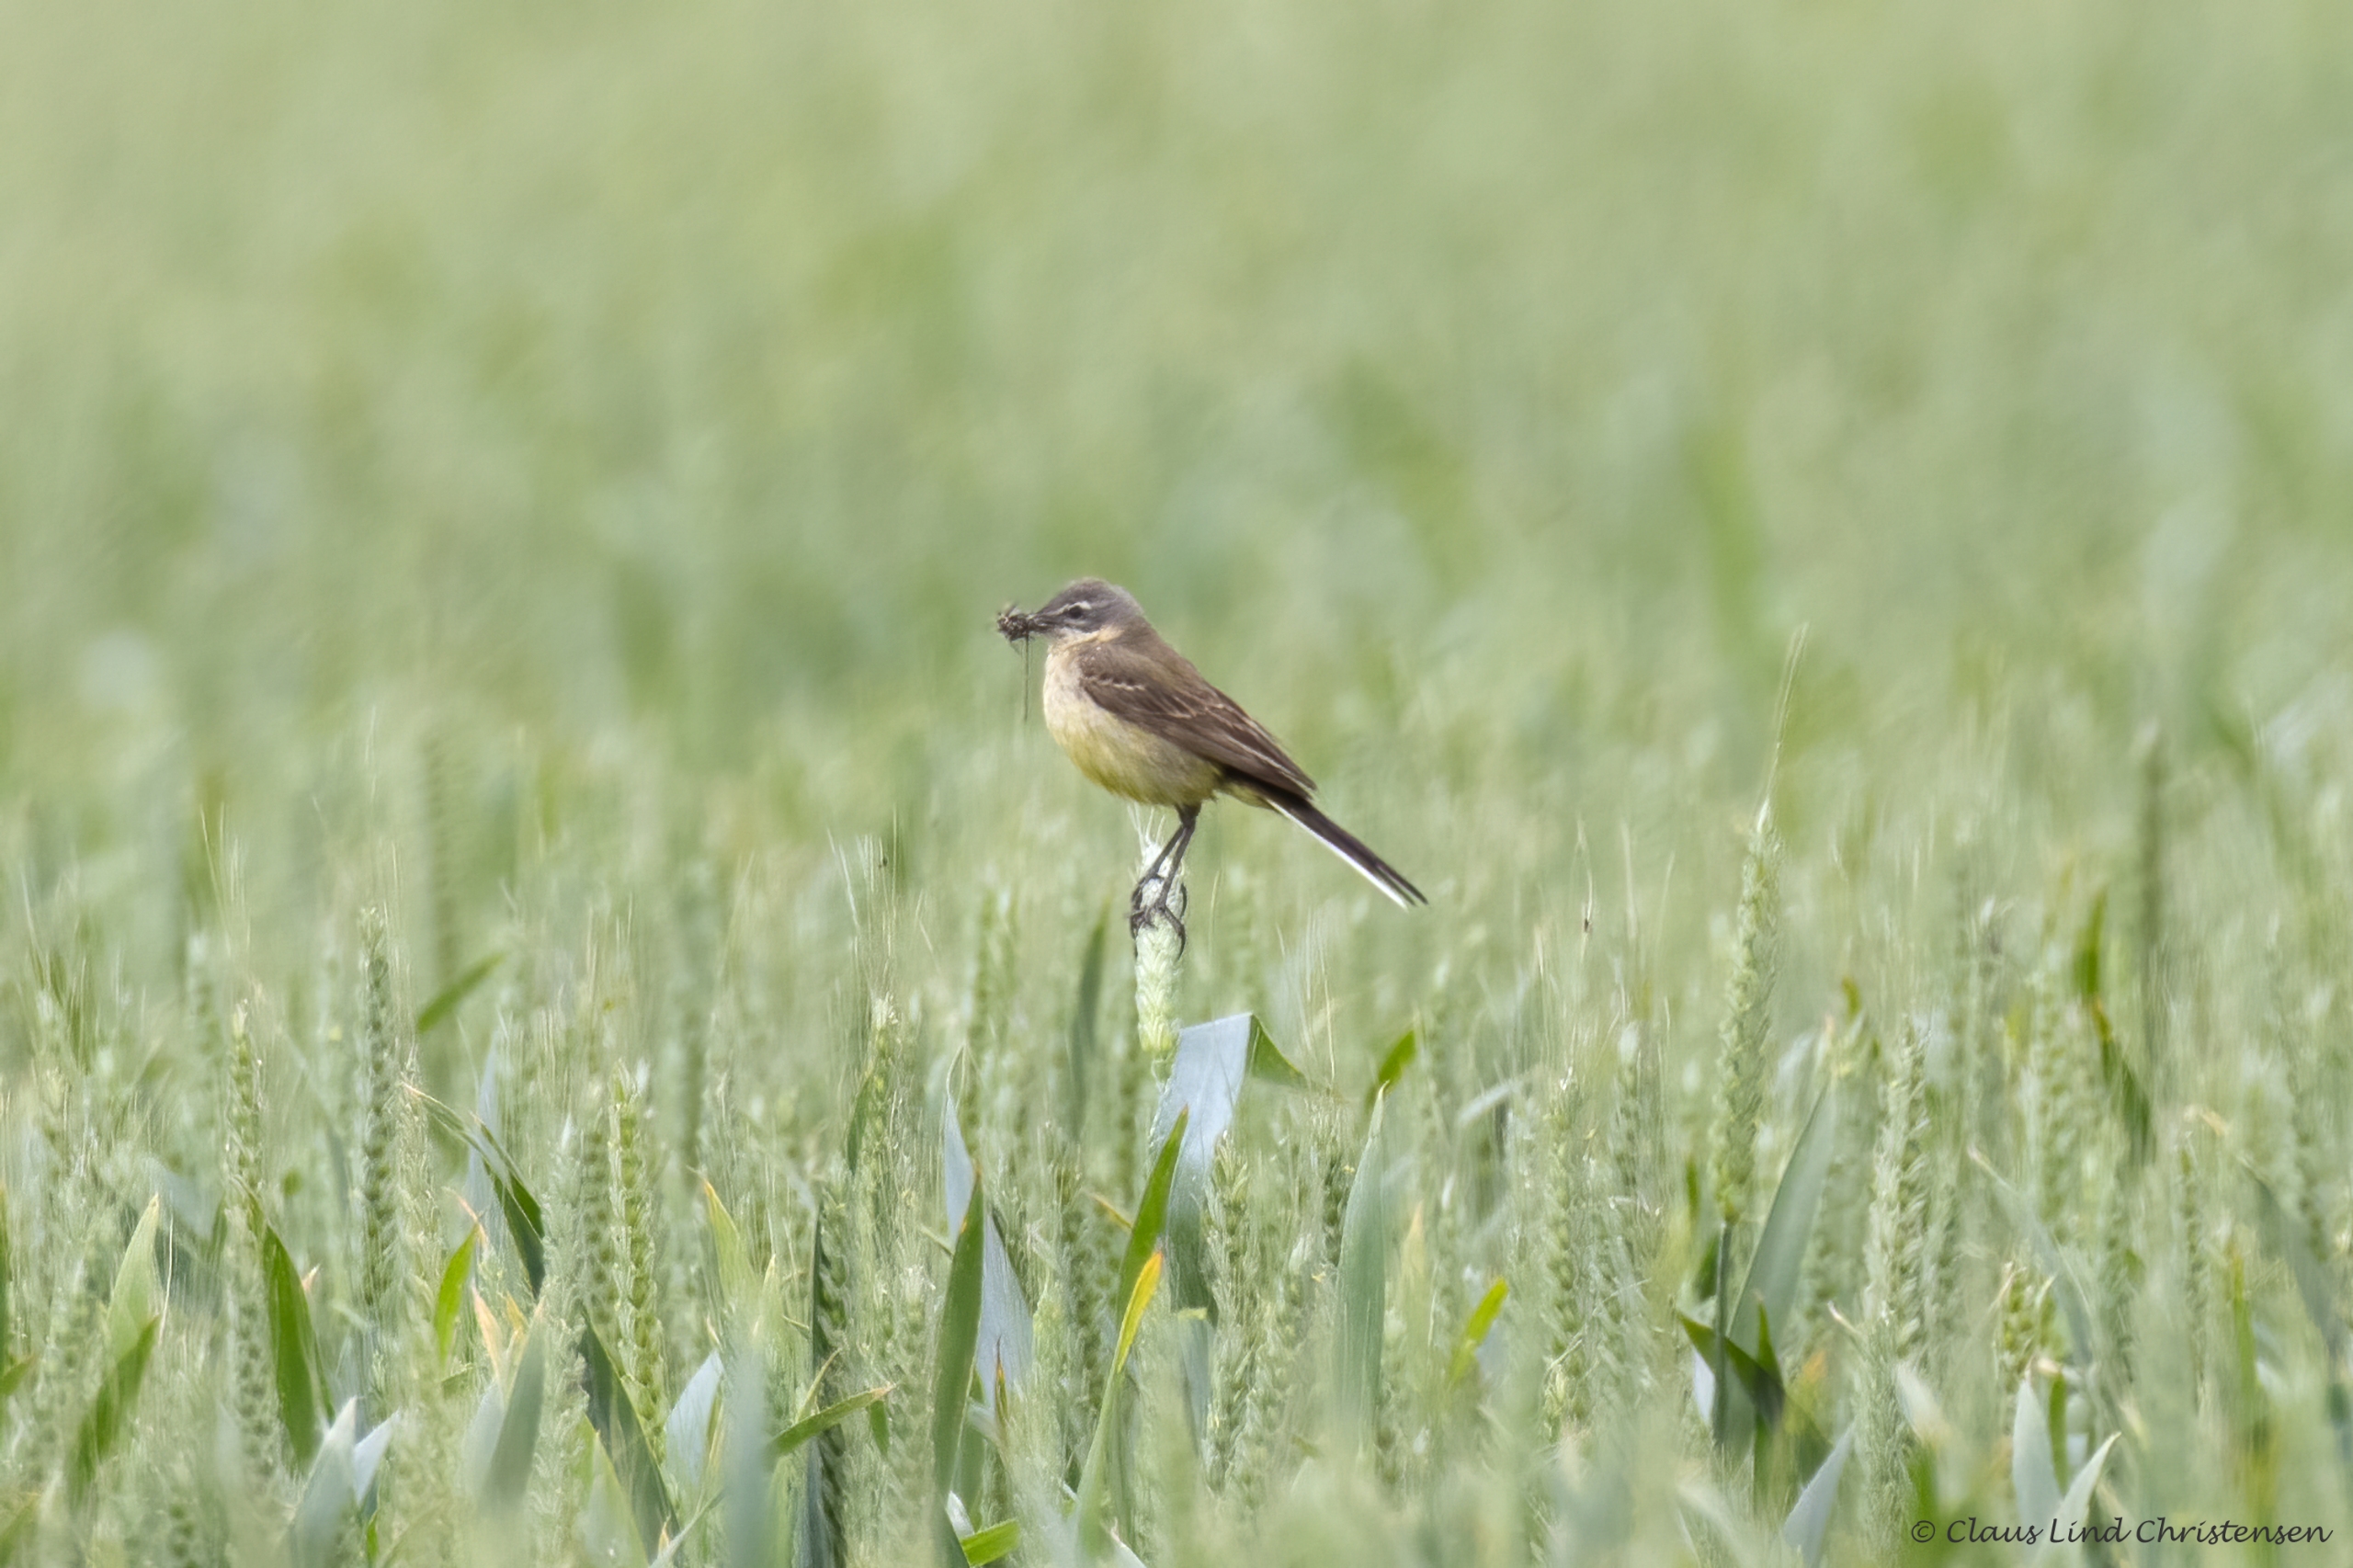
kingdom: Animalia
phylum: Chordata
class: Aves
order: Passeriformes
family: Motacillidae
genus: Motacilla
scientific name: Motacilla flava
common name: Gul vipstjert
